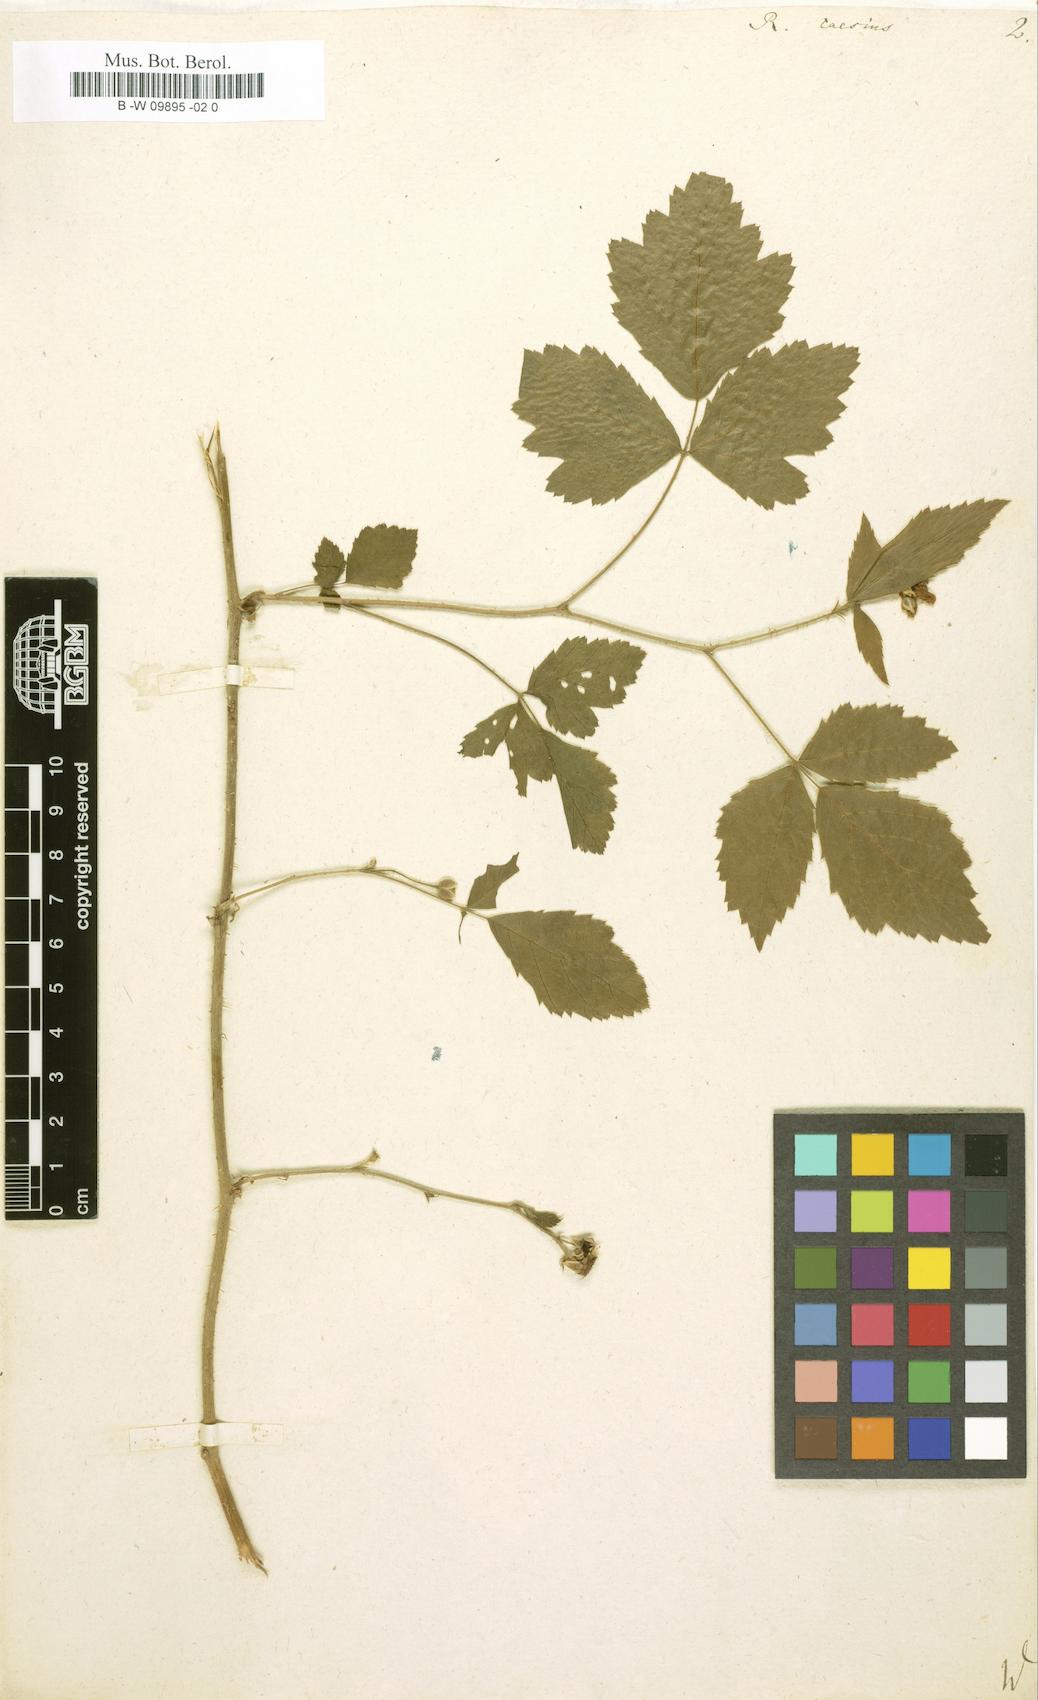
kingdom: Plantae
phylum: Tracheophyta
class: Magnoliopsida
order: Rosales
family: Rosaceae
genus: Rubus
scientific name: Rubus caesius
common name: Dewberry
